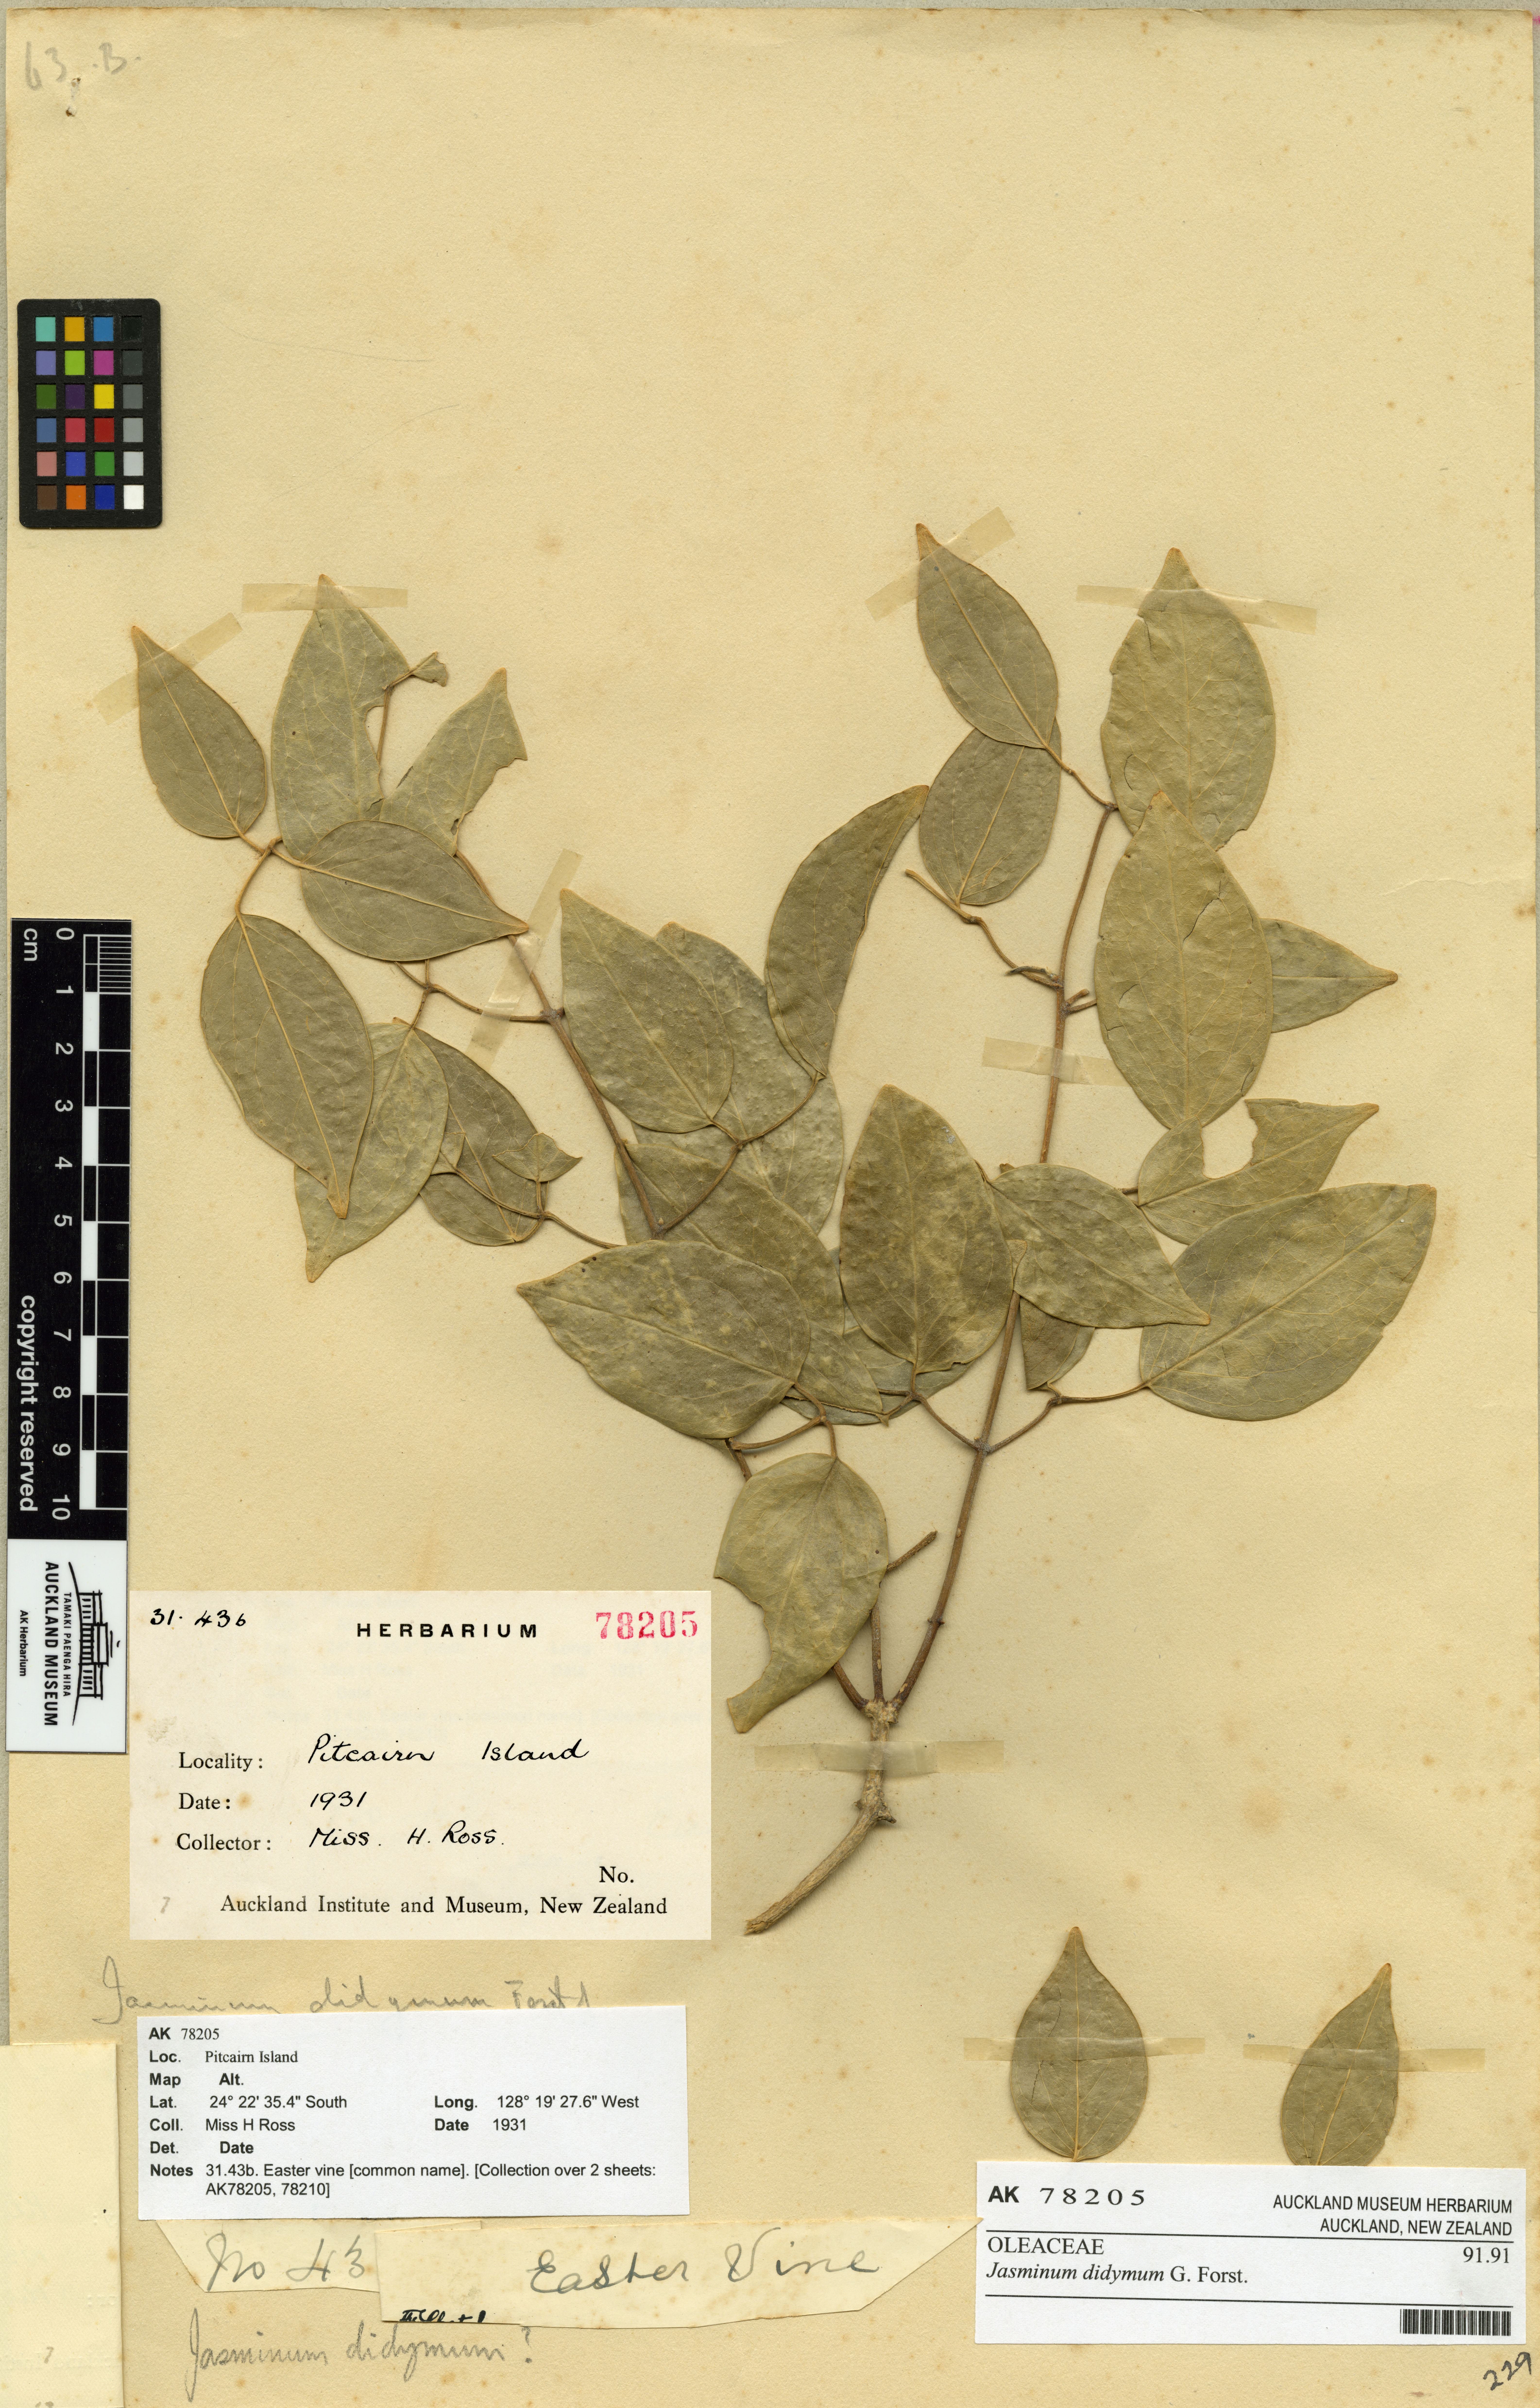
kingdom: Plantae
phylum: Tracheophyta
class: Magnoliopsida
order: Lamiales
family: Oleaceae
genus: Jasminum
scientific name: Jasminum didymum
